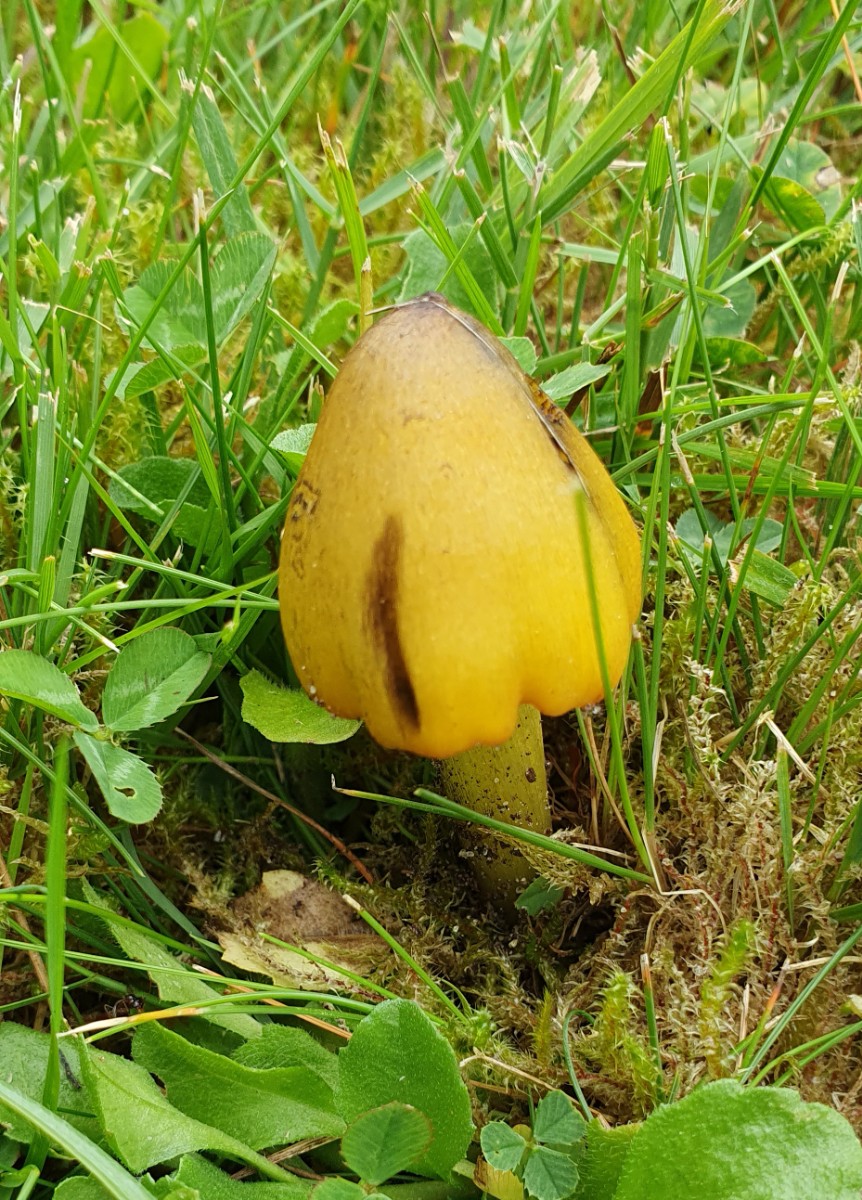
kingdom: Fungi
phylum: Basidiomycota
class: Agaricomycetes
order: Agaricales
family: Hygrophoraceae
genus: Hygrocybe
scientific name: Hygrocybe conica
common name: kegle-vokshat
